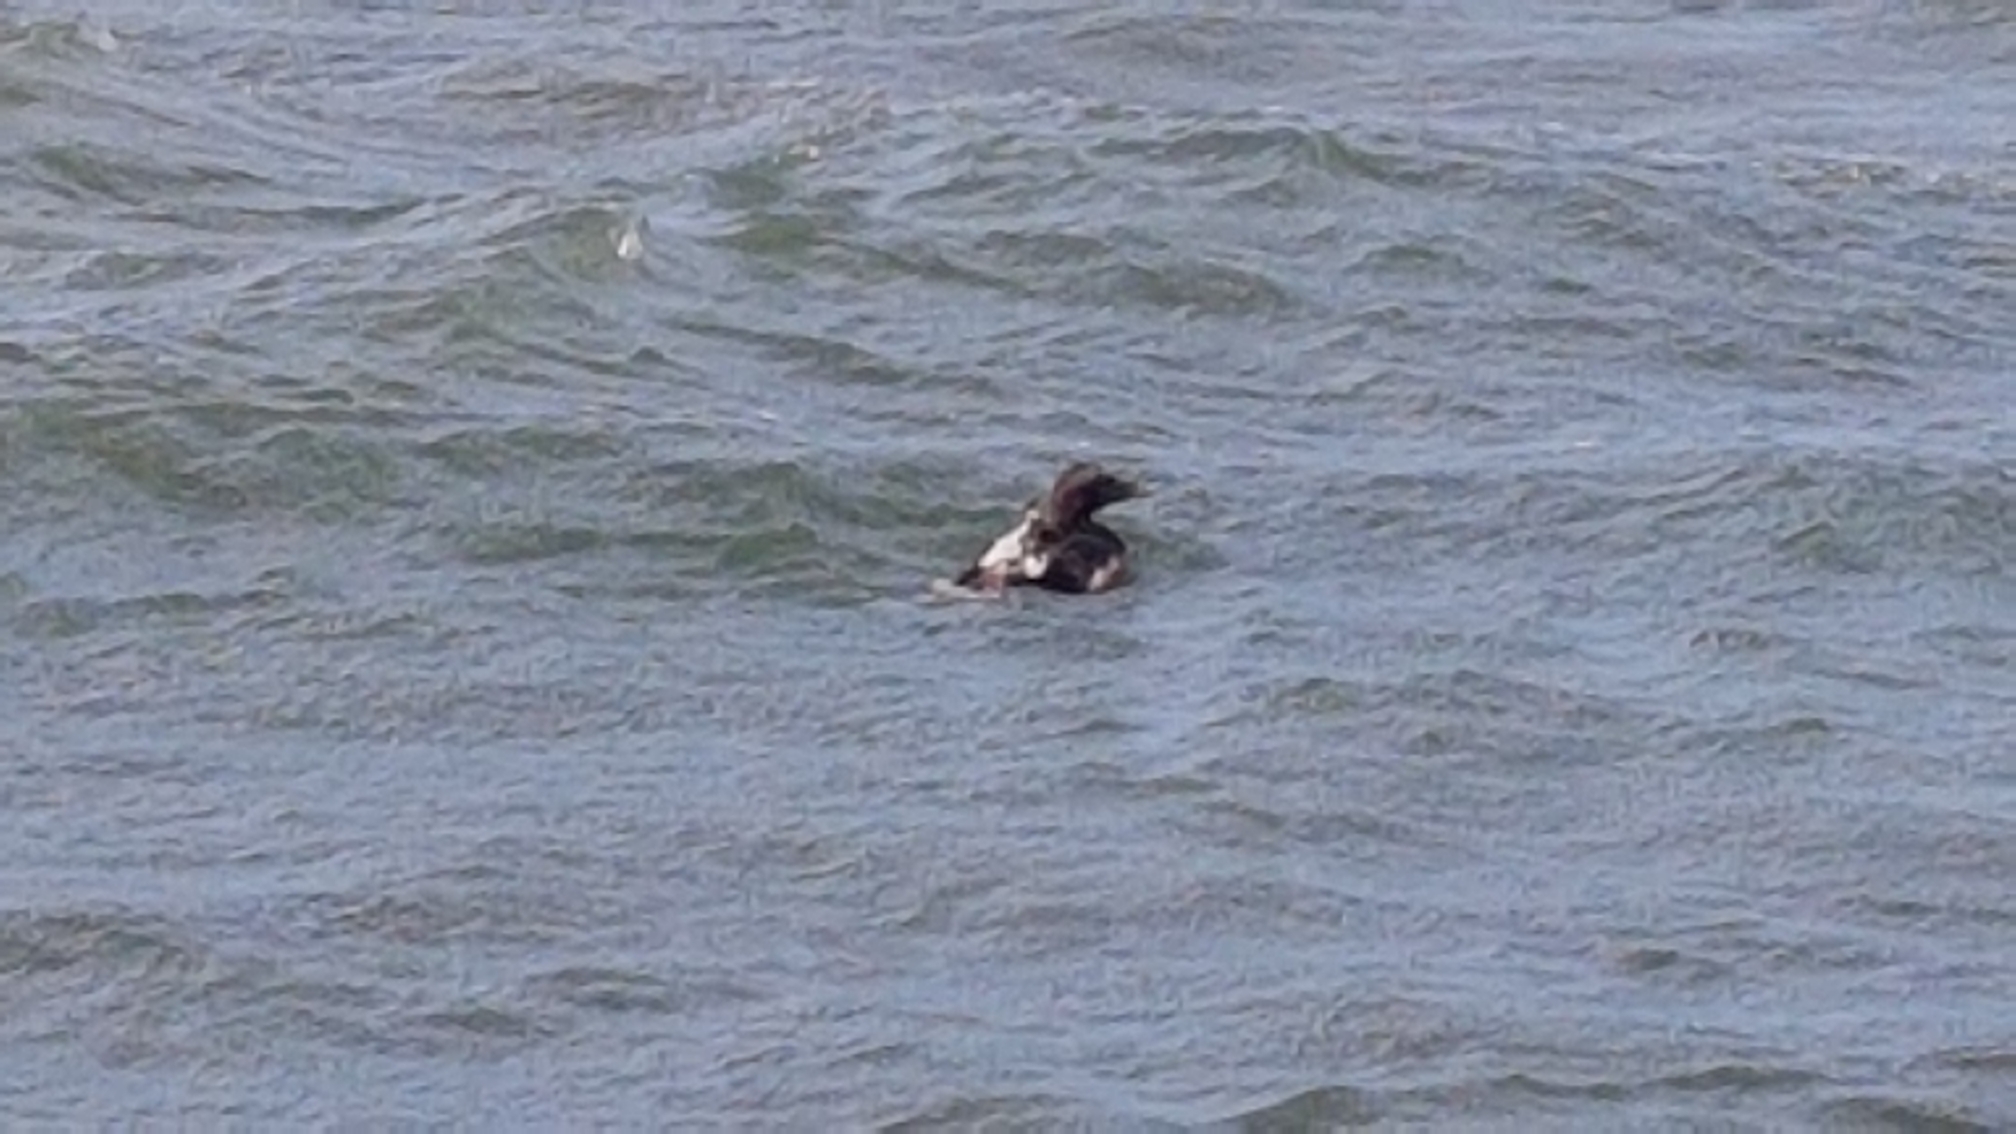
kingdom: Animalia
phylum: Chordata
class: Aves
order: Anseriformes
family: Anatidae
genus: Somateria
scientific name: Somateria mollissima
